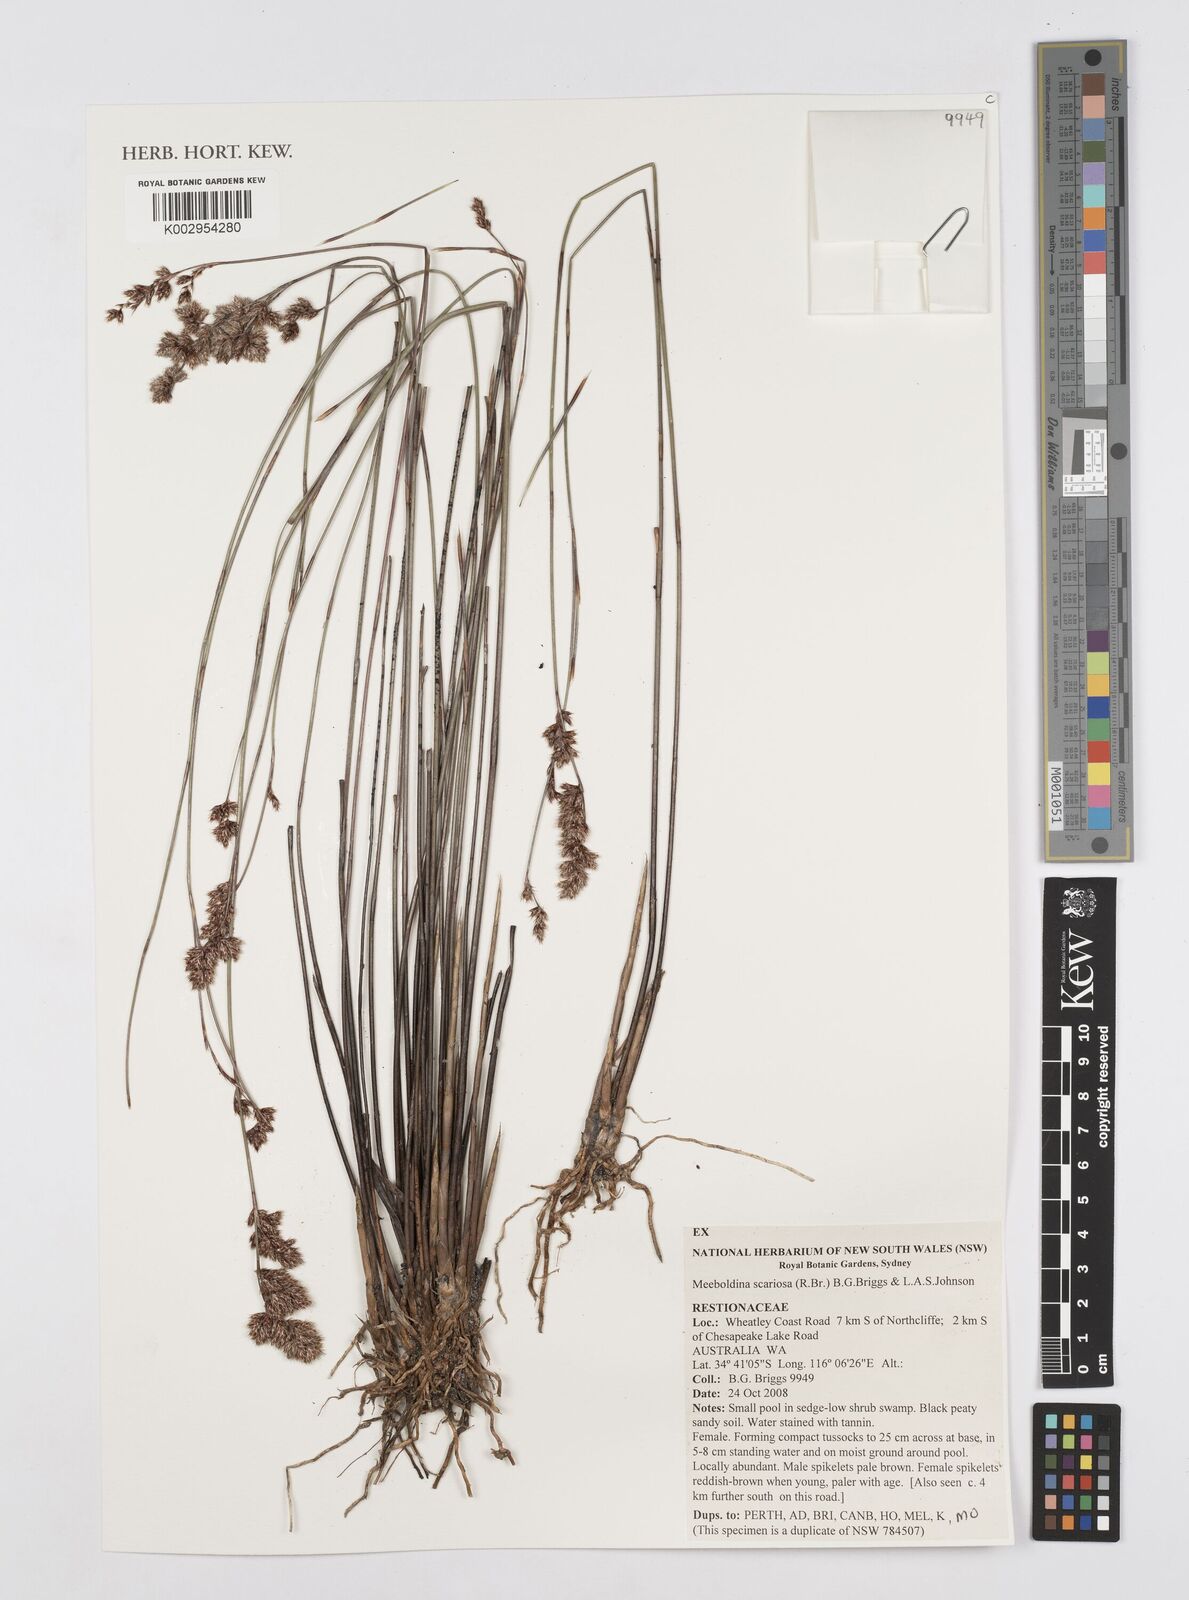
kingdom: Plantae
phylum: Tracheophyta
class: Liliopsida
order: Poales
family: Restionaceae
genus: Leptocarpus
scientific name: Leptocarpus scariosus
